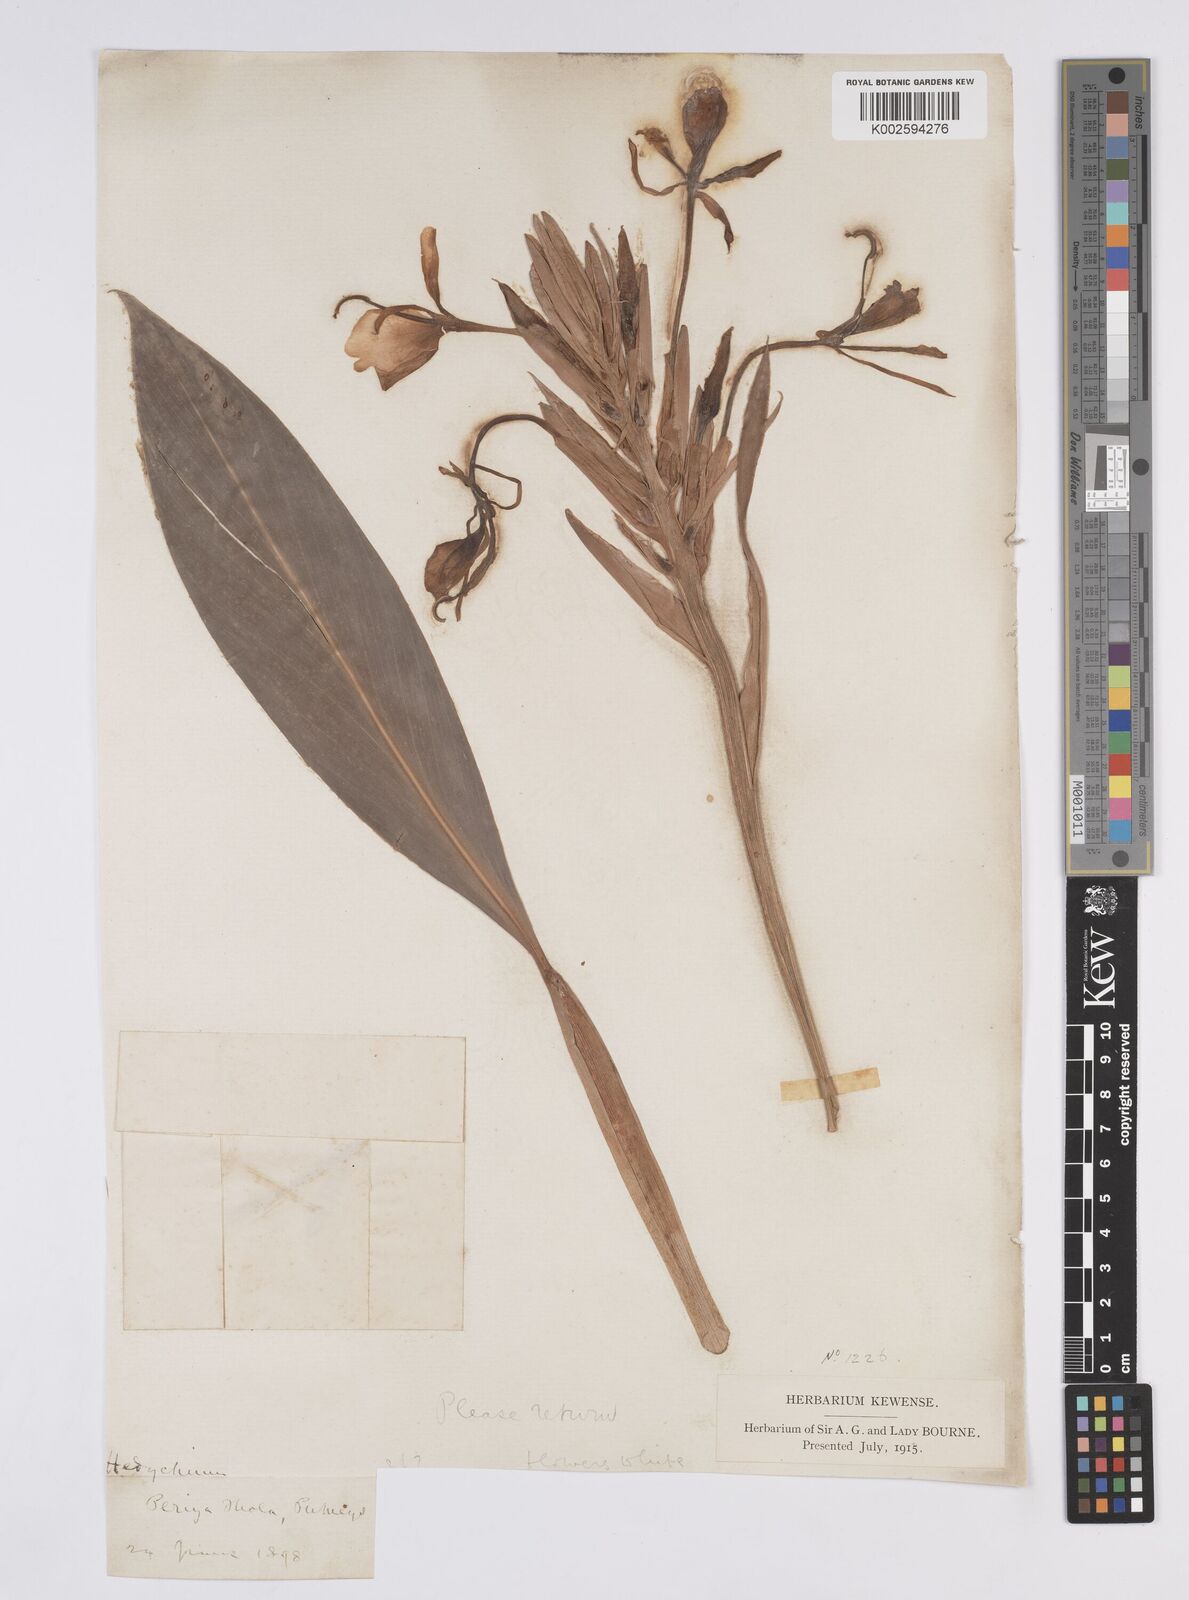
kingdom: Plantae
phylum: Tracheophyta
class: Liliopsida
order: Zingiberales
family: Zingiberaceae
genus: Hedychium
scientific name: Hedychium coronarium
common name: White garland-lily
